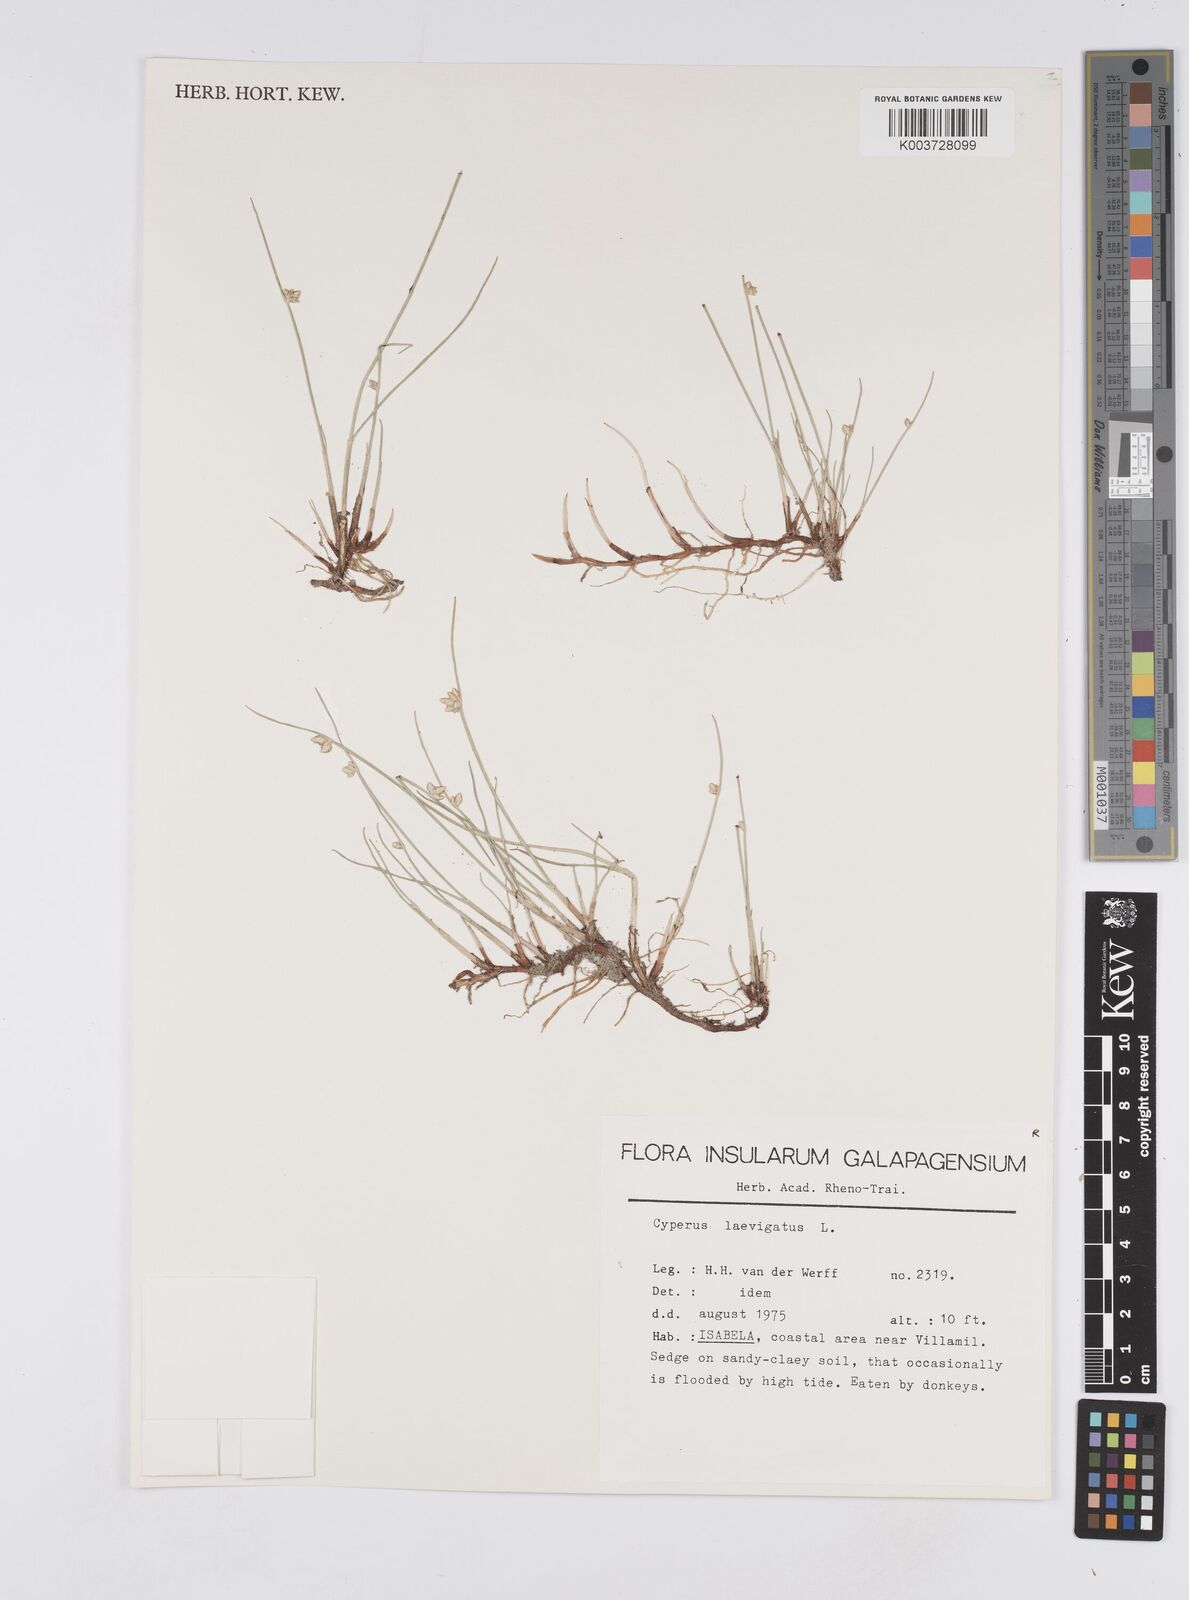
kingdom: Plantae
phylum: Tracheophyta
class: Liliopsida
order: Poales
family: Cyperaceae
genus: Cyperus
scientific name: Cyperus laevigatus
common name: Smooth flat sedge
